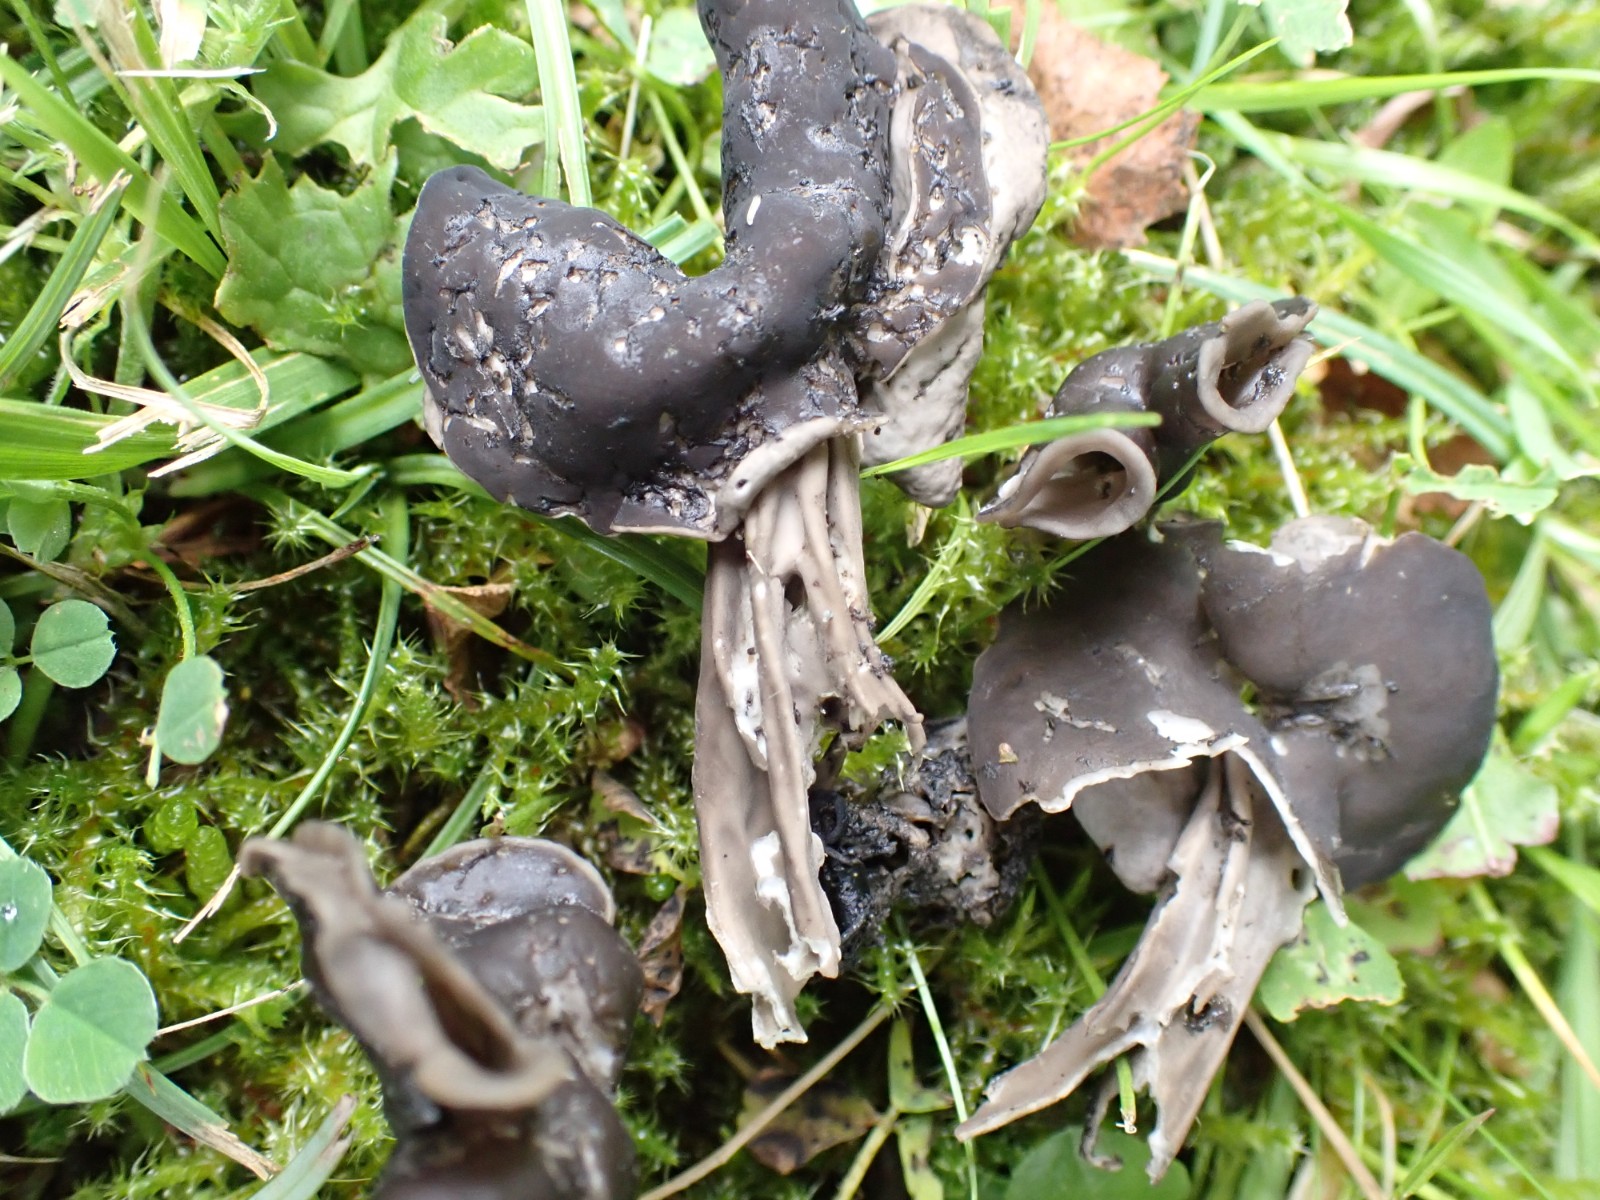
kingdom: Fungi
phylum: Ascomycota
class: Pezizomycetes
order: Pezizales
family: Helvellaceae
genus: Helvella
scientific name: Helvella lacunosa
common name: grubet foldhat
